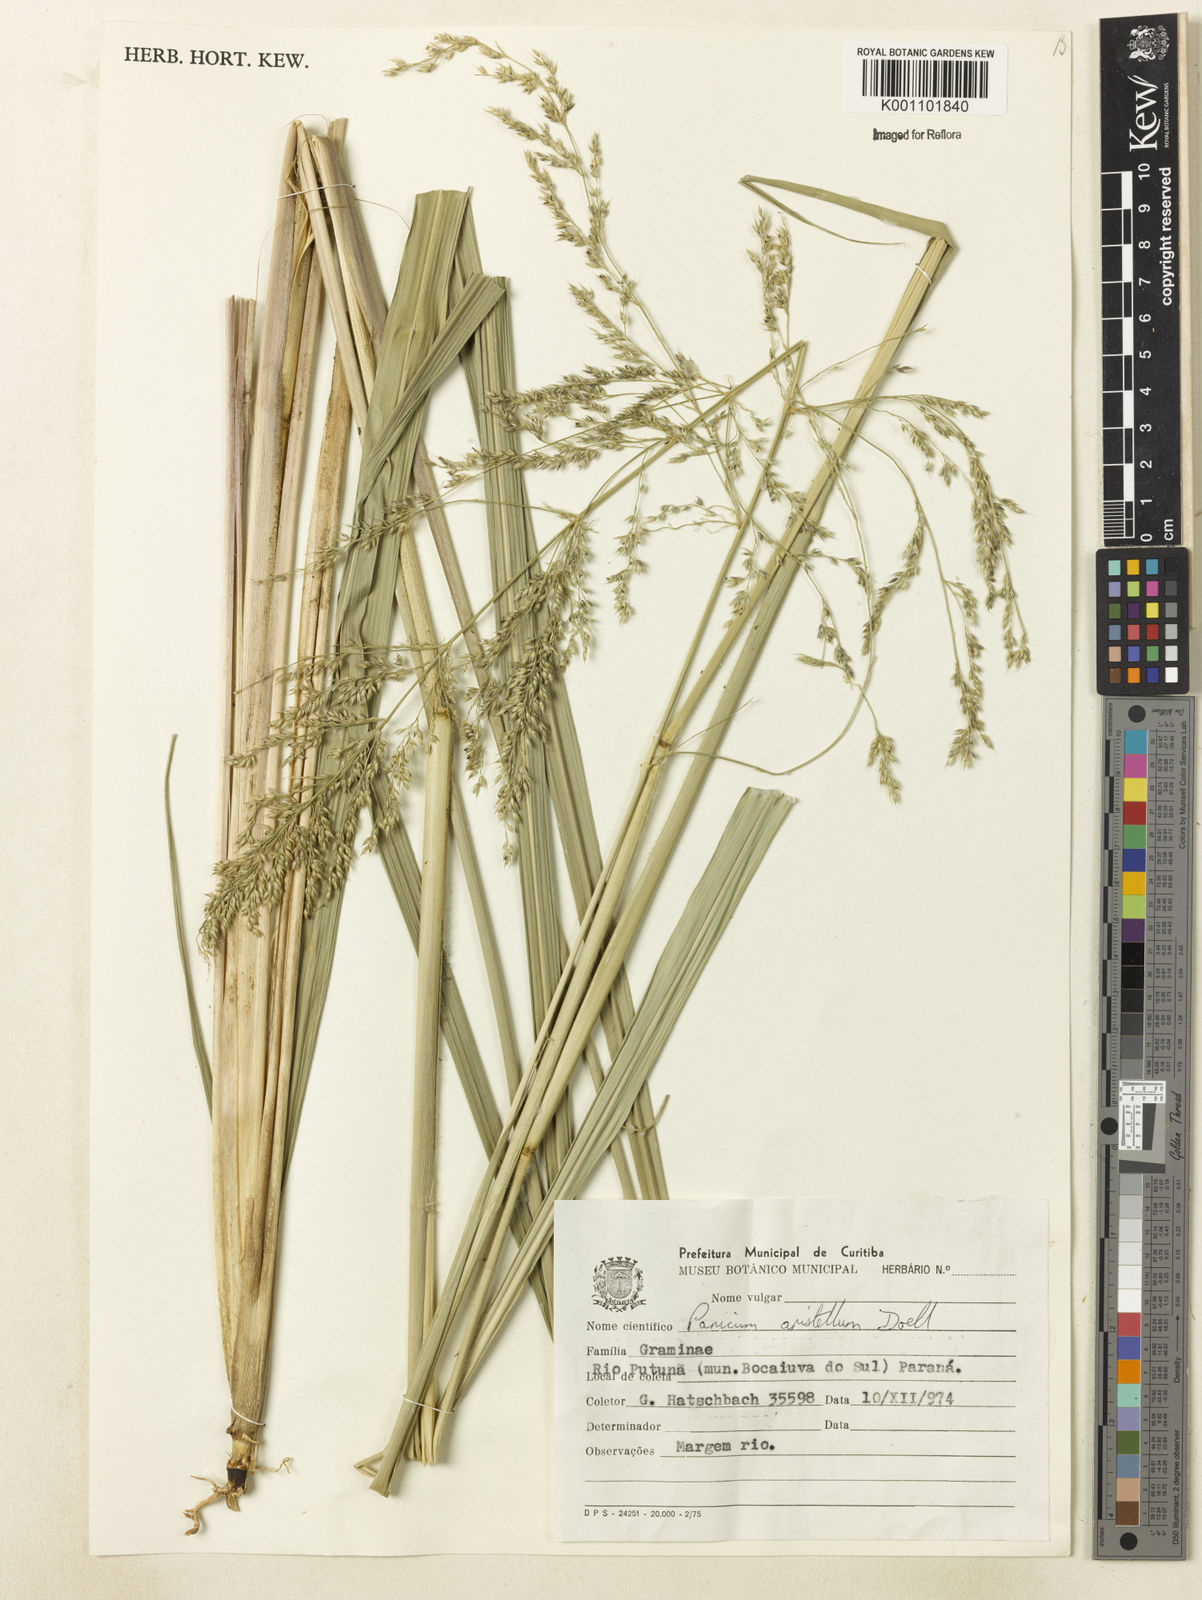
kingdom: Plantae
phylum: Tracheophyta
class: Liliopsida
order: Poales
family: Poaceae
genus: Panicum
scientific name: Panicum
